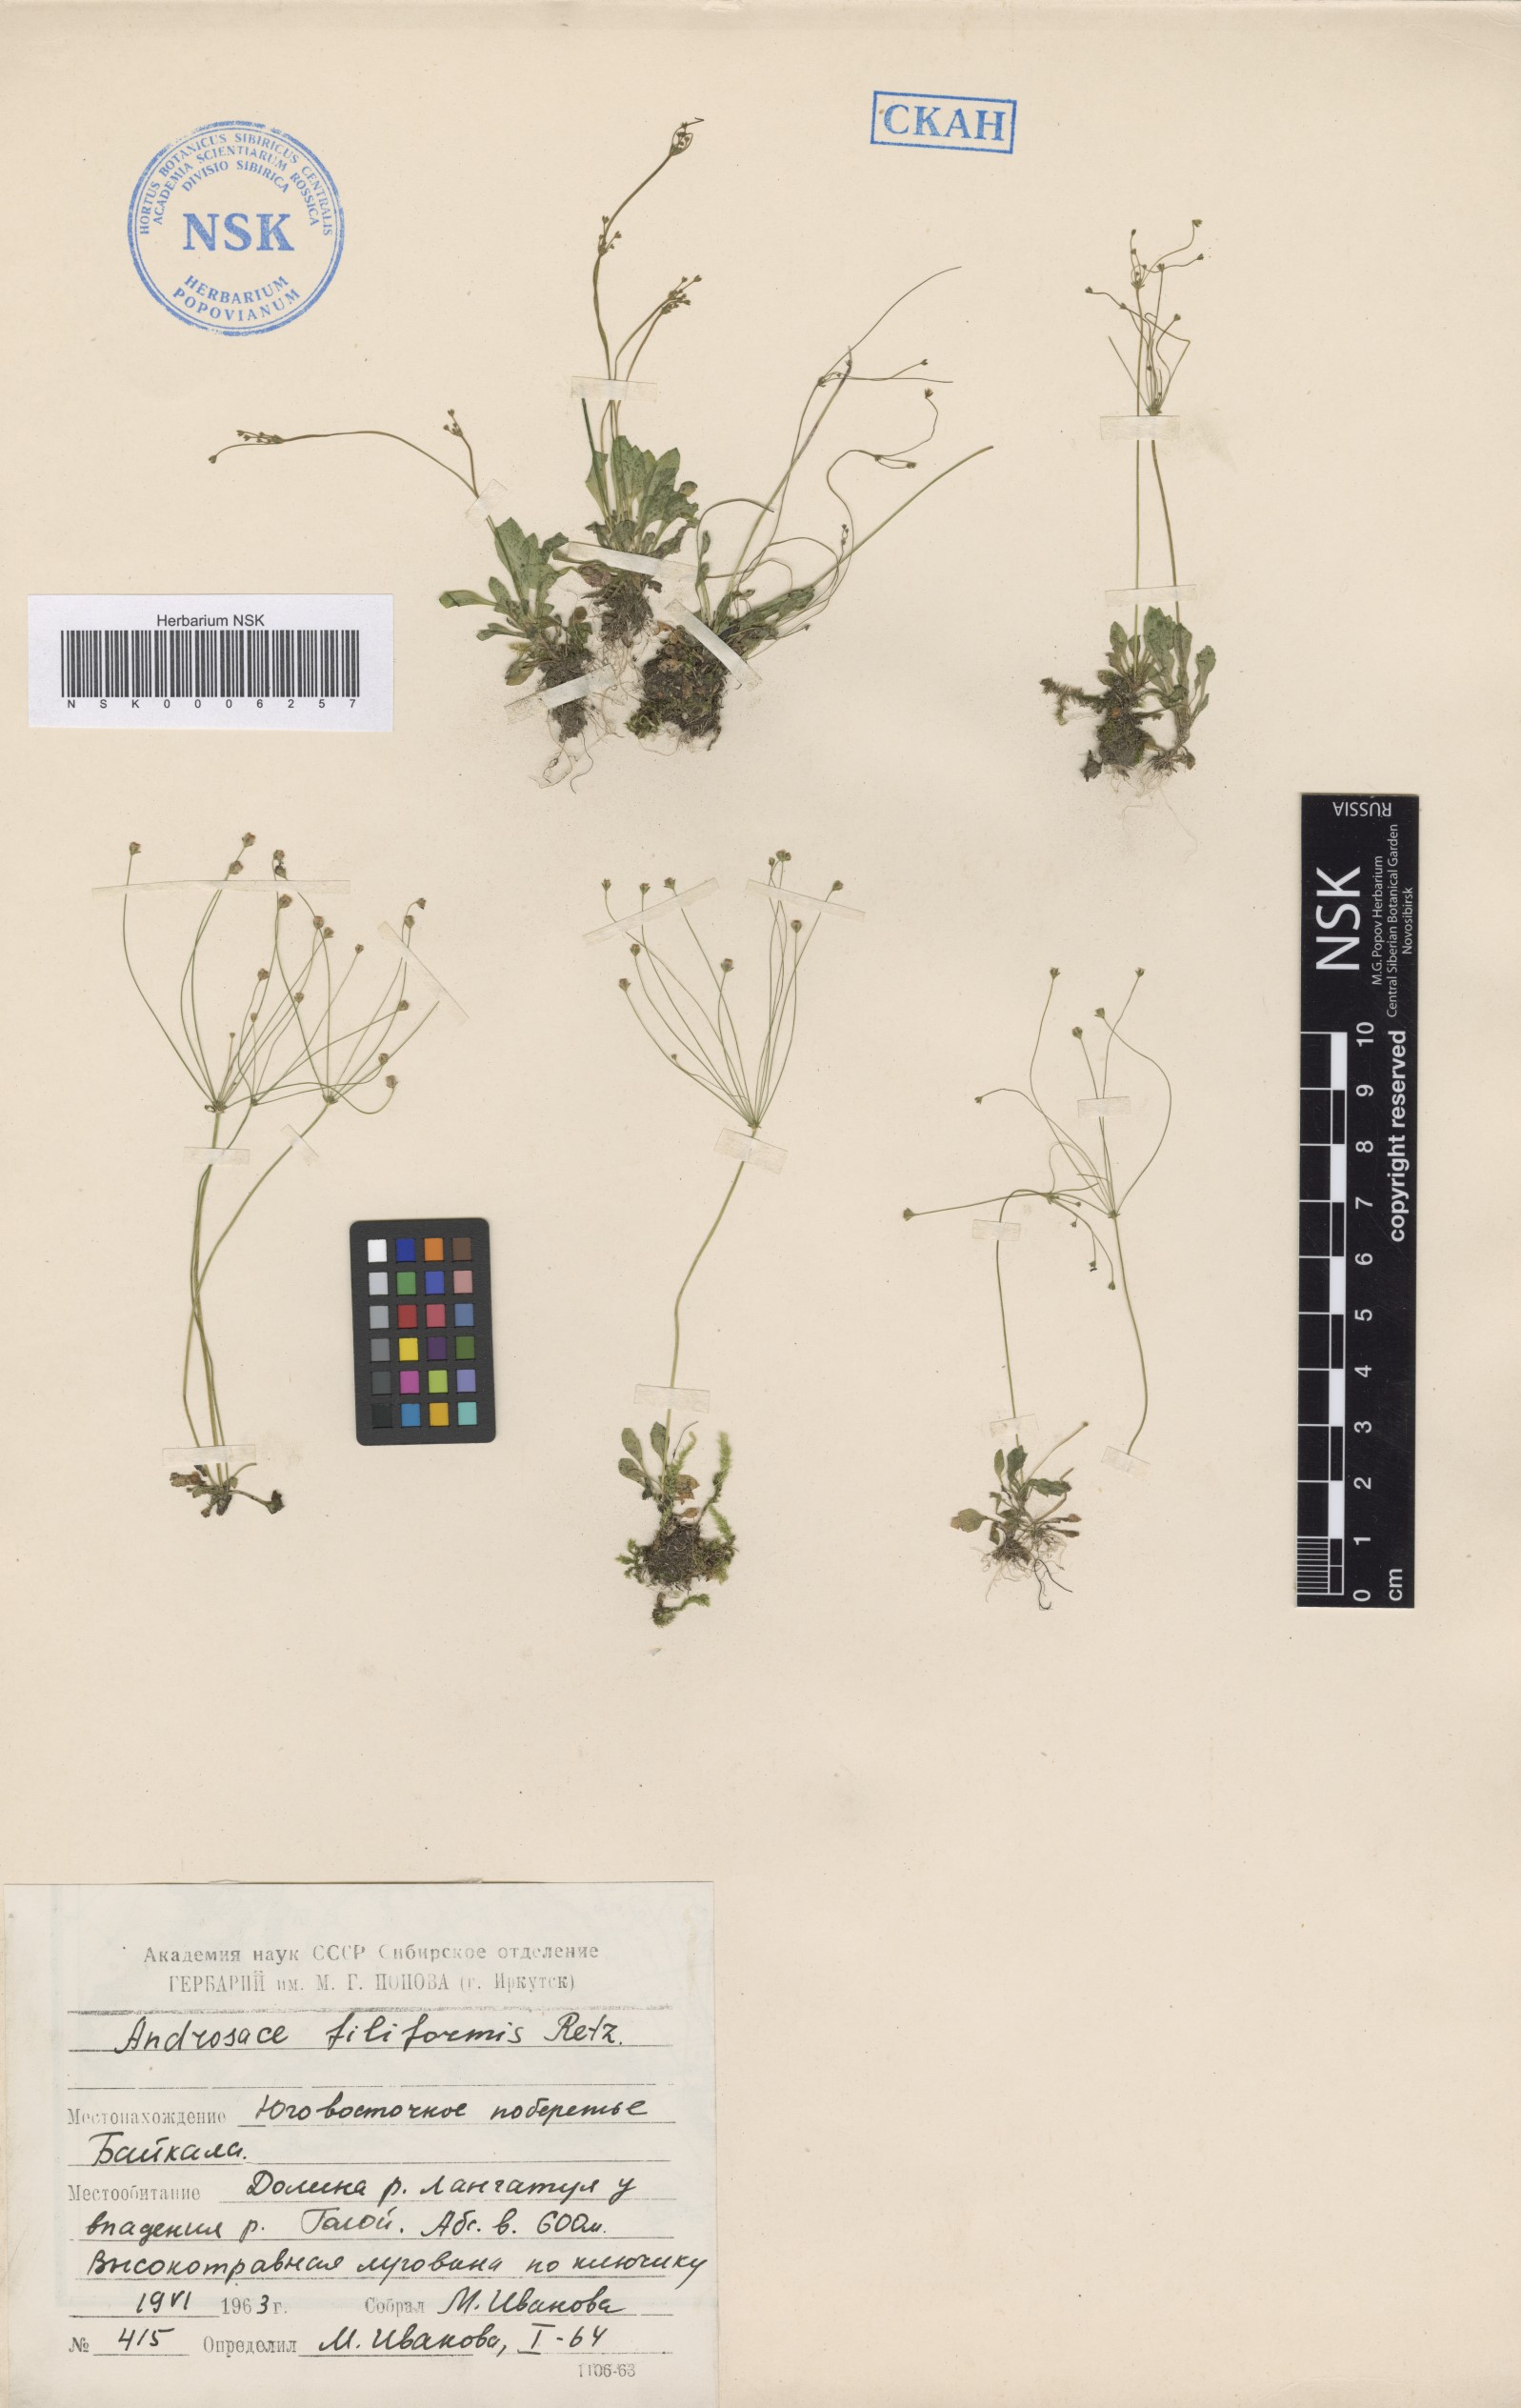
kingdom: Plantae
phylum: Tracheophyta
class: Magnoliopsida
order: Ericales
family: Primulaceae
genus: Androsace
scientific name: Androsace filiformis
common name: Filiform rock jasmine
